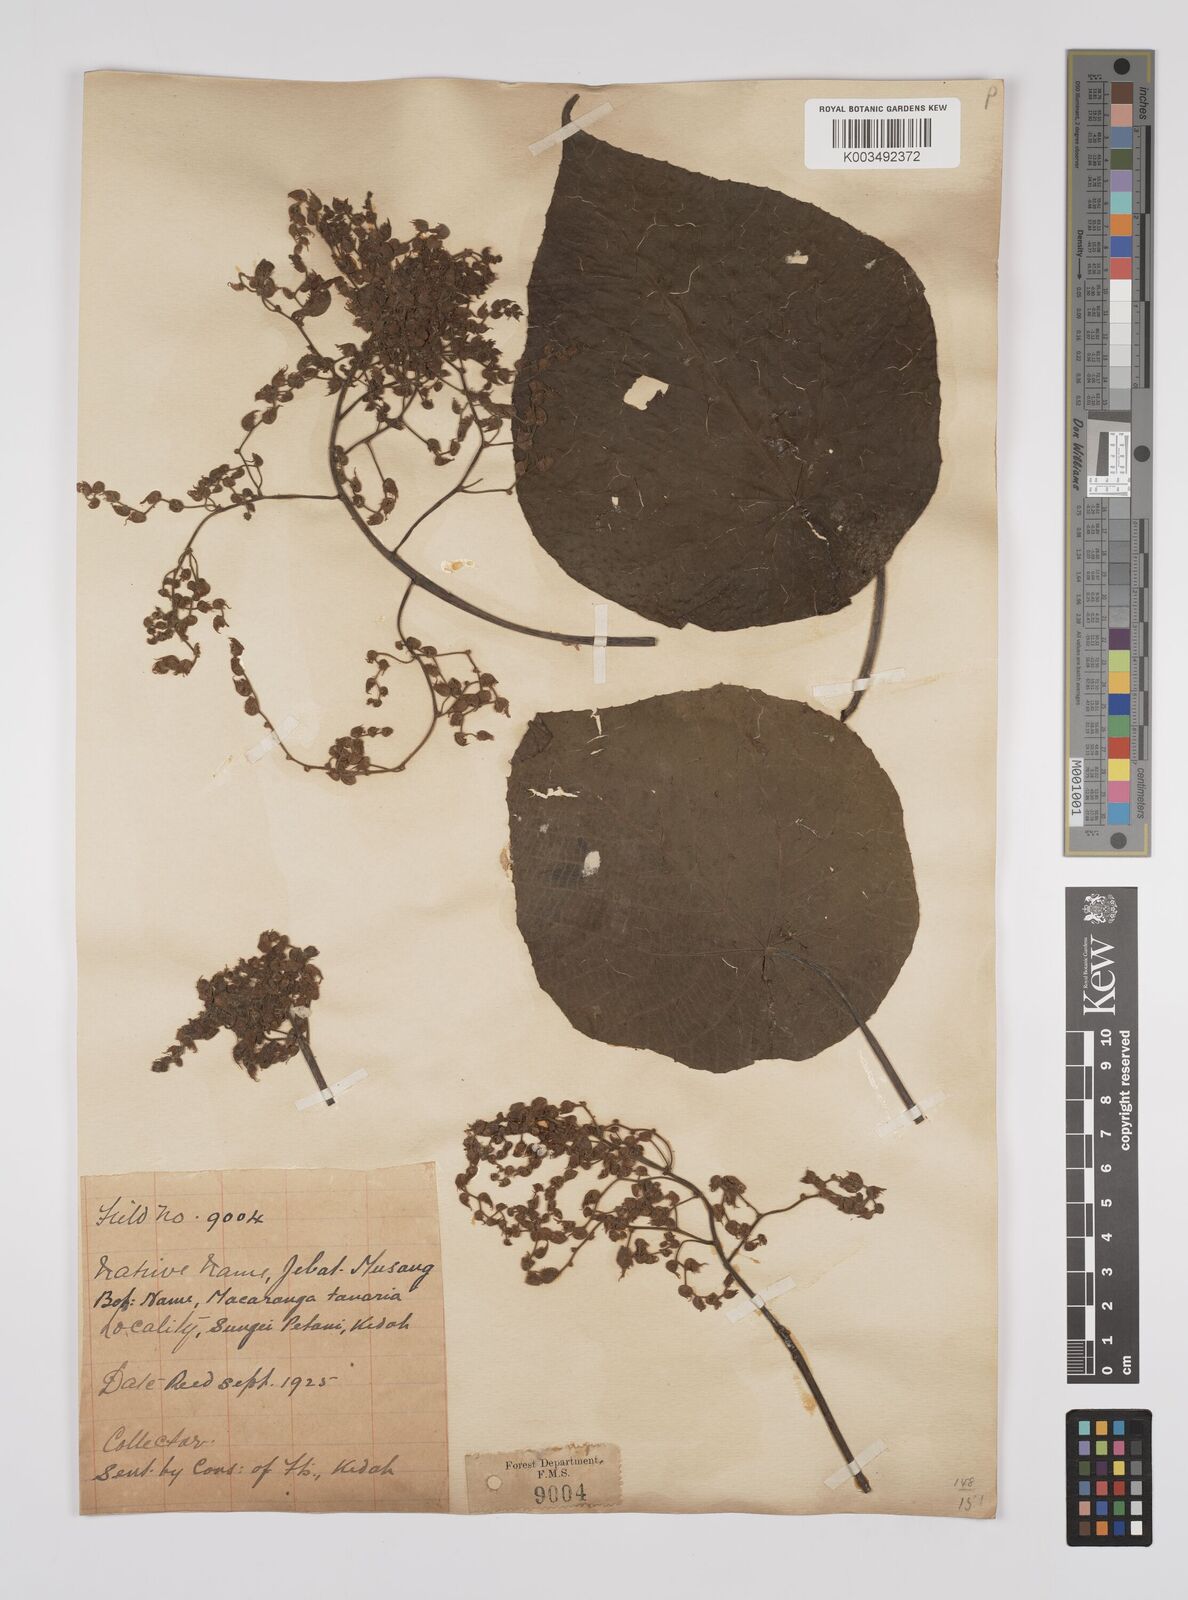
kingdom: Plantae
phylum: Tracheophyta
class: Magnoliopsida
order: Malpighiales
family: Euphorbiaceae
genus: Macaranga
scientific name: Macaranga tanarius
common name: Parasol leaf tree
